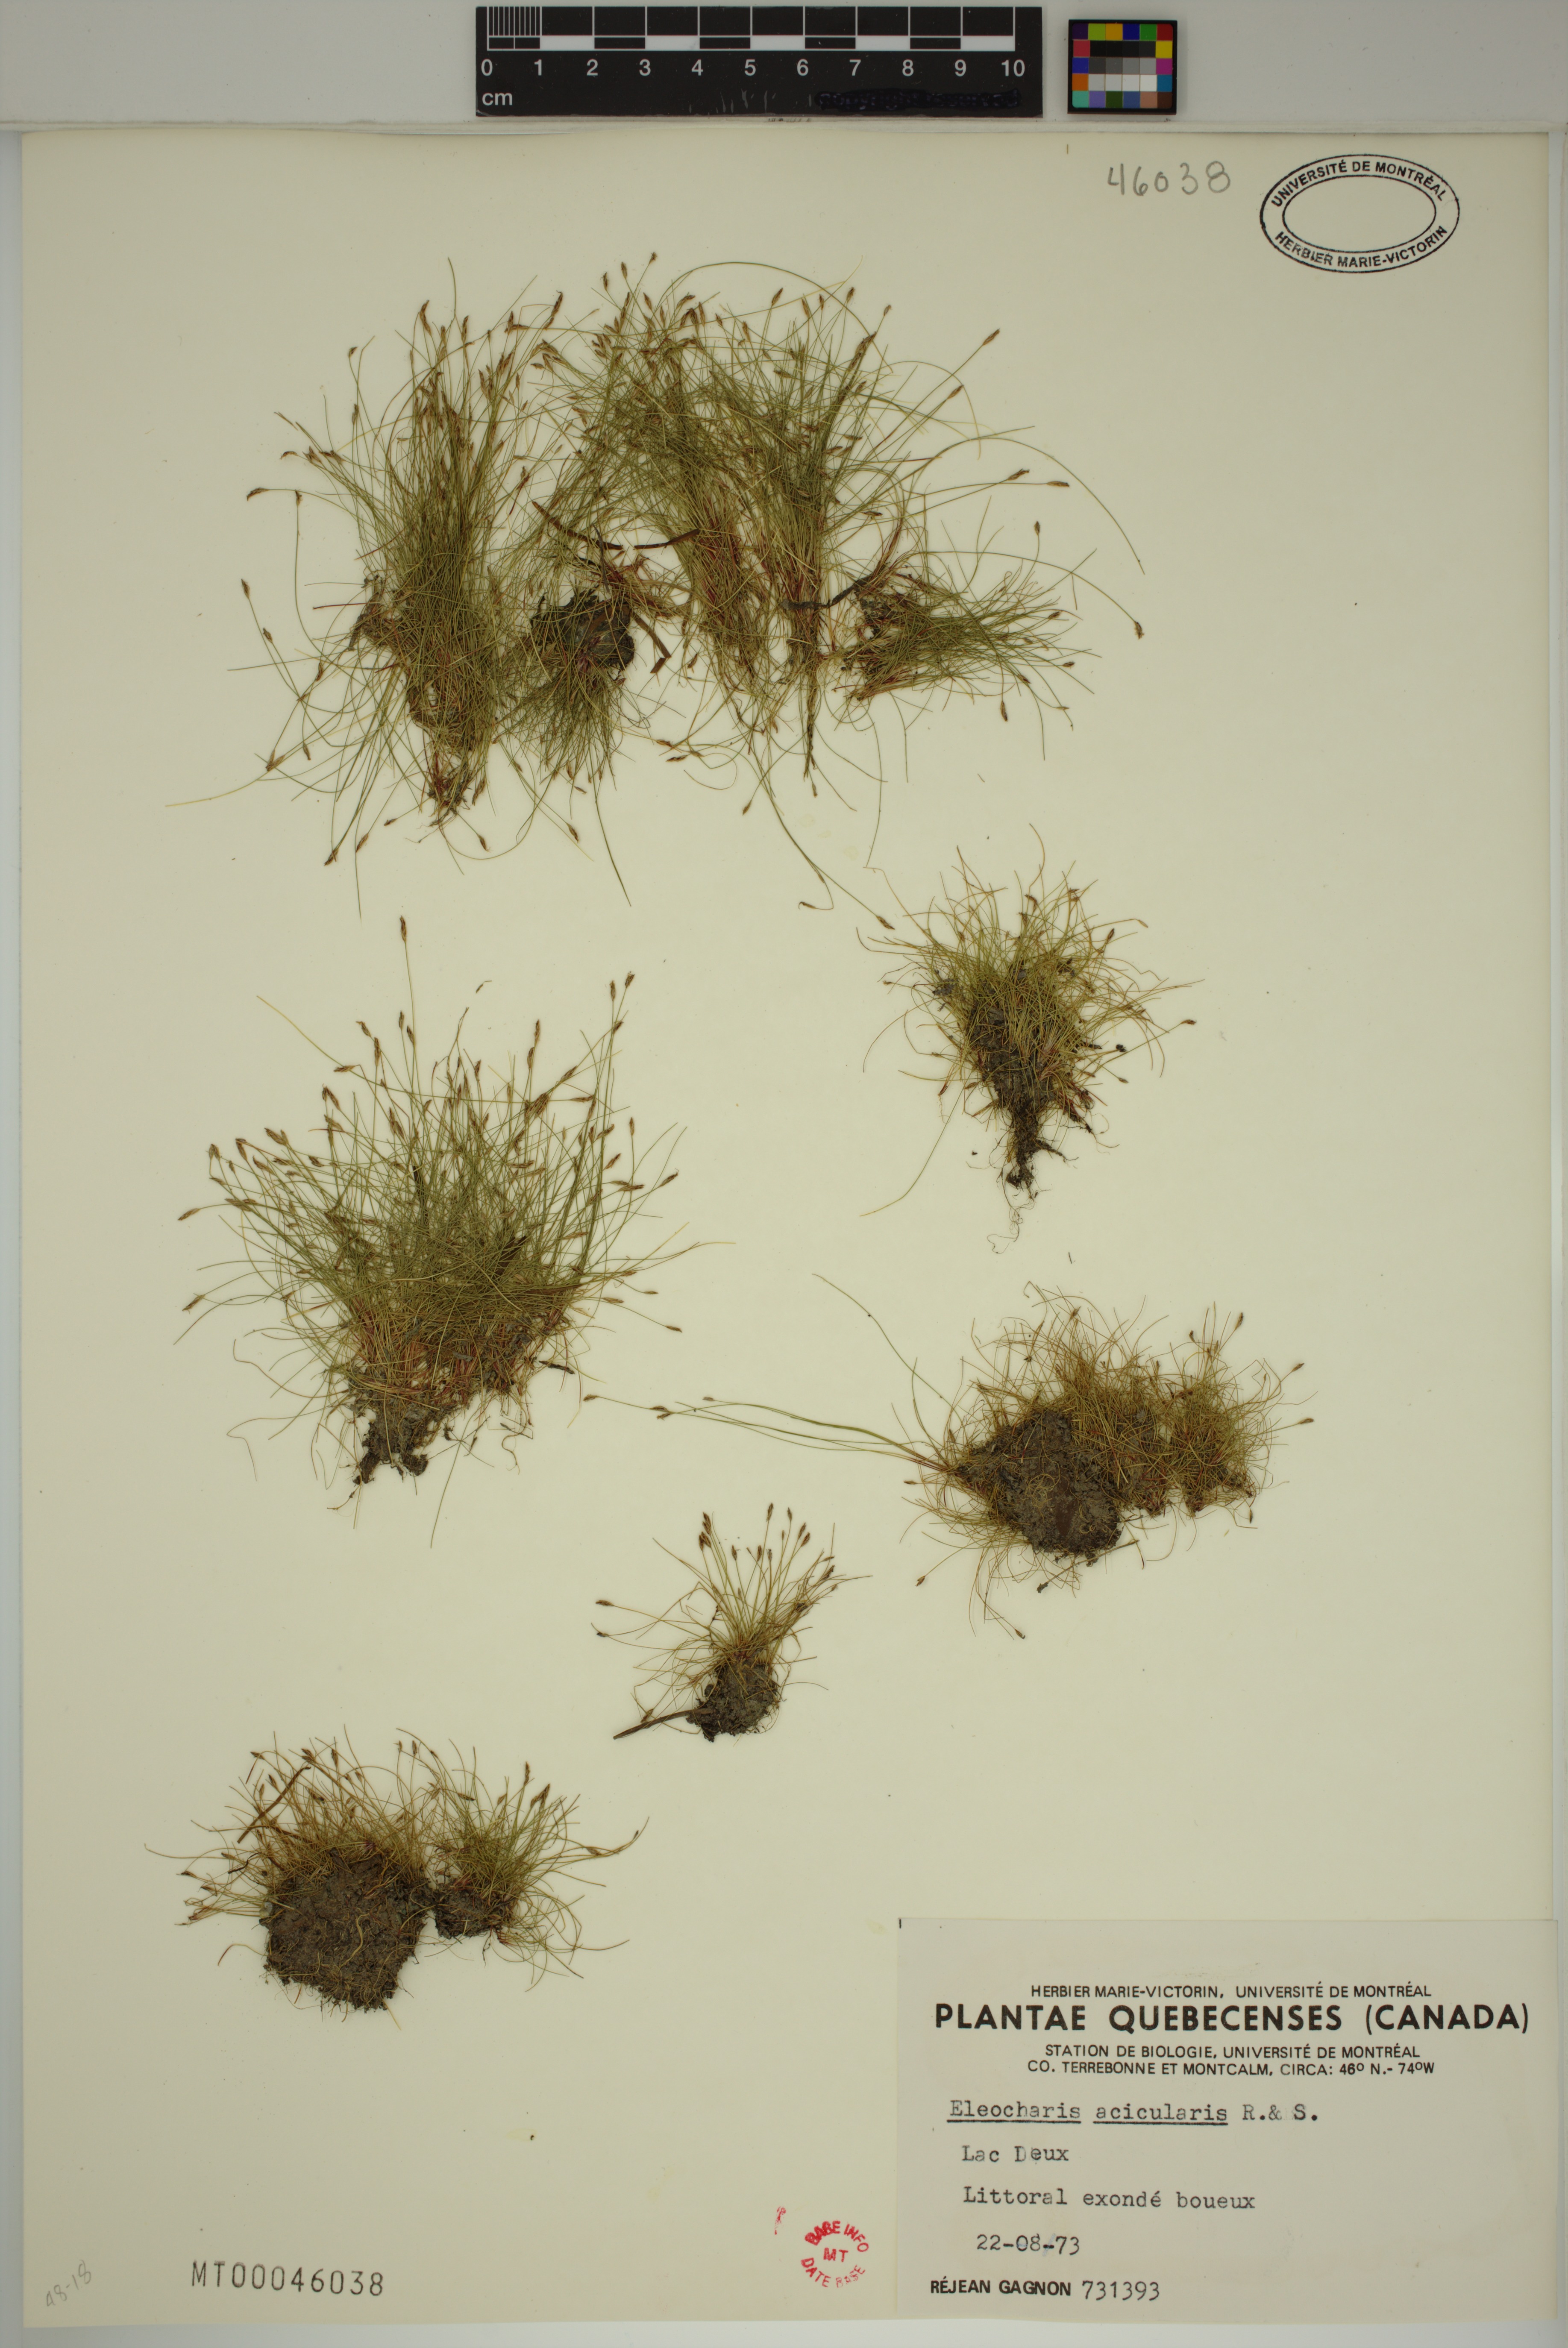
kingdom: Plantae
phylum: Tracheophyta
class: Liliopsida
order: Poales
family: Cyperaceae
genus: Eleocharis
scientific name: Eleocharis acicularis
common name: Needle spike-rush
